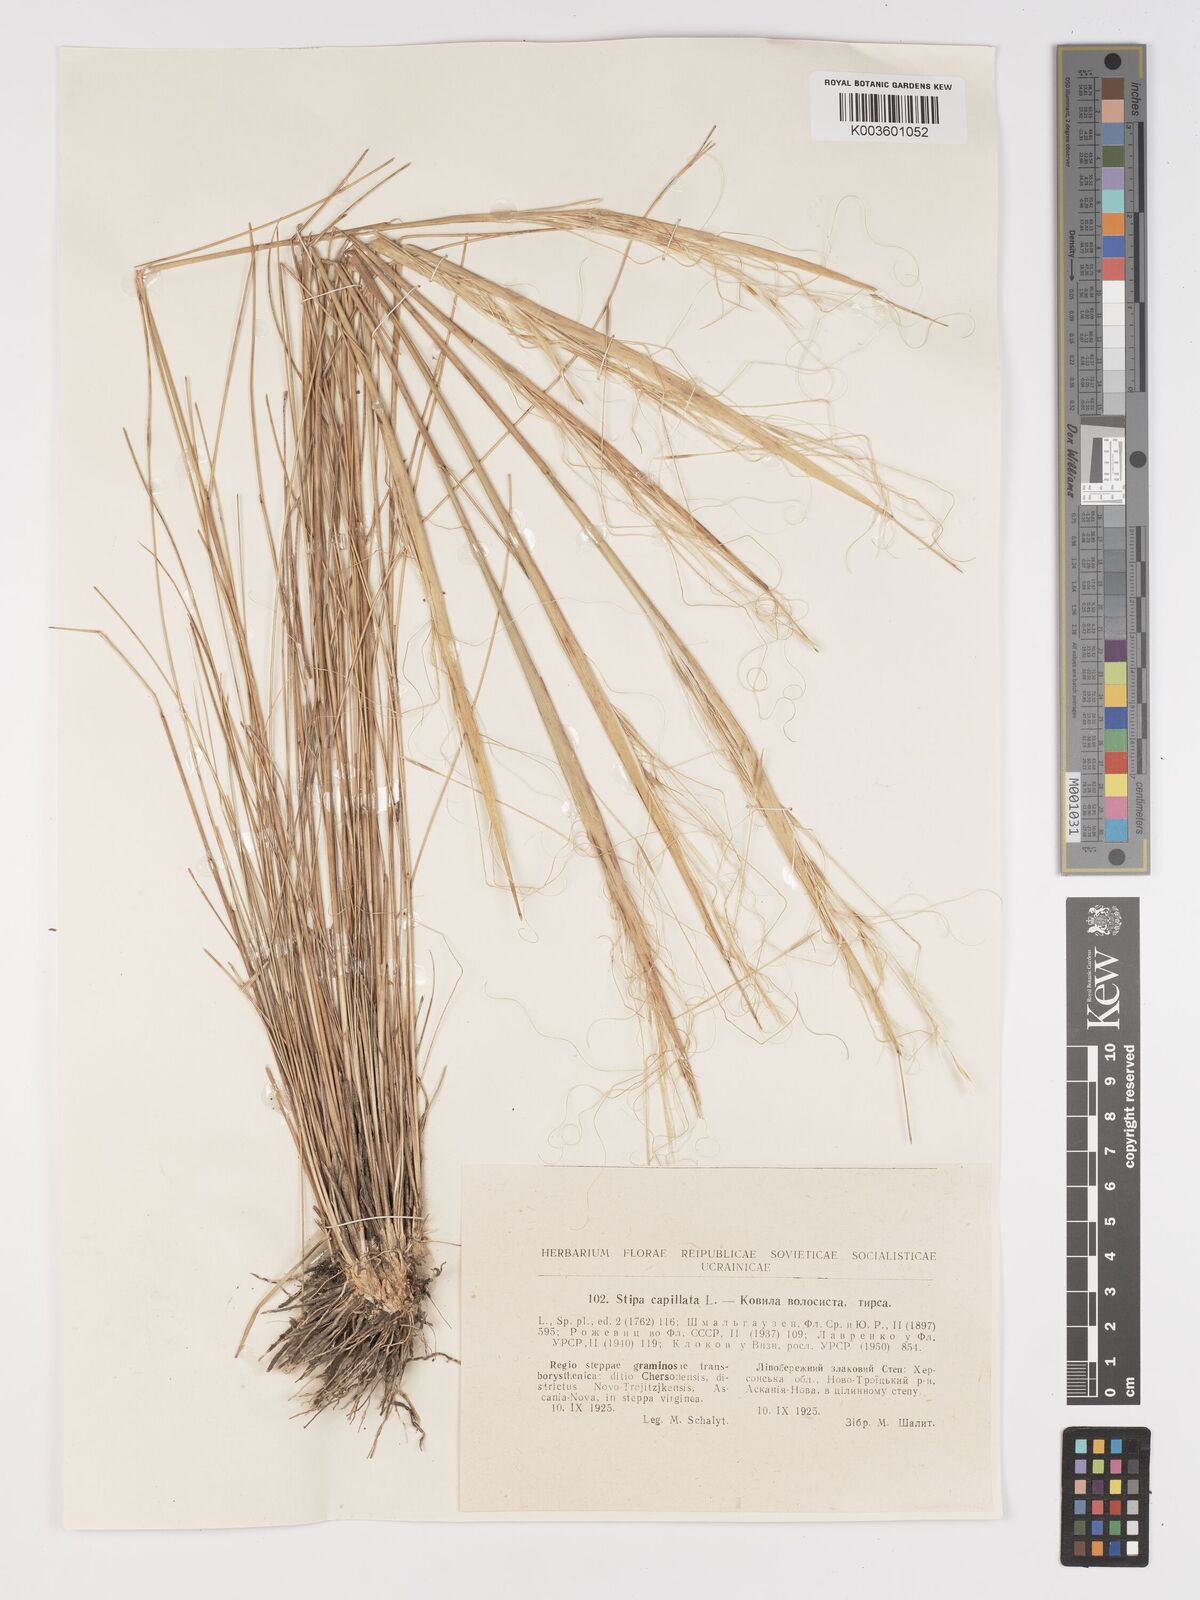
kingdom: Plantae
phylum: Tracheophyta
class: Liliopsida
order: Poales
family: Poaceae
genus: Stipa
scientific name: Stipa capillata
